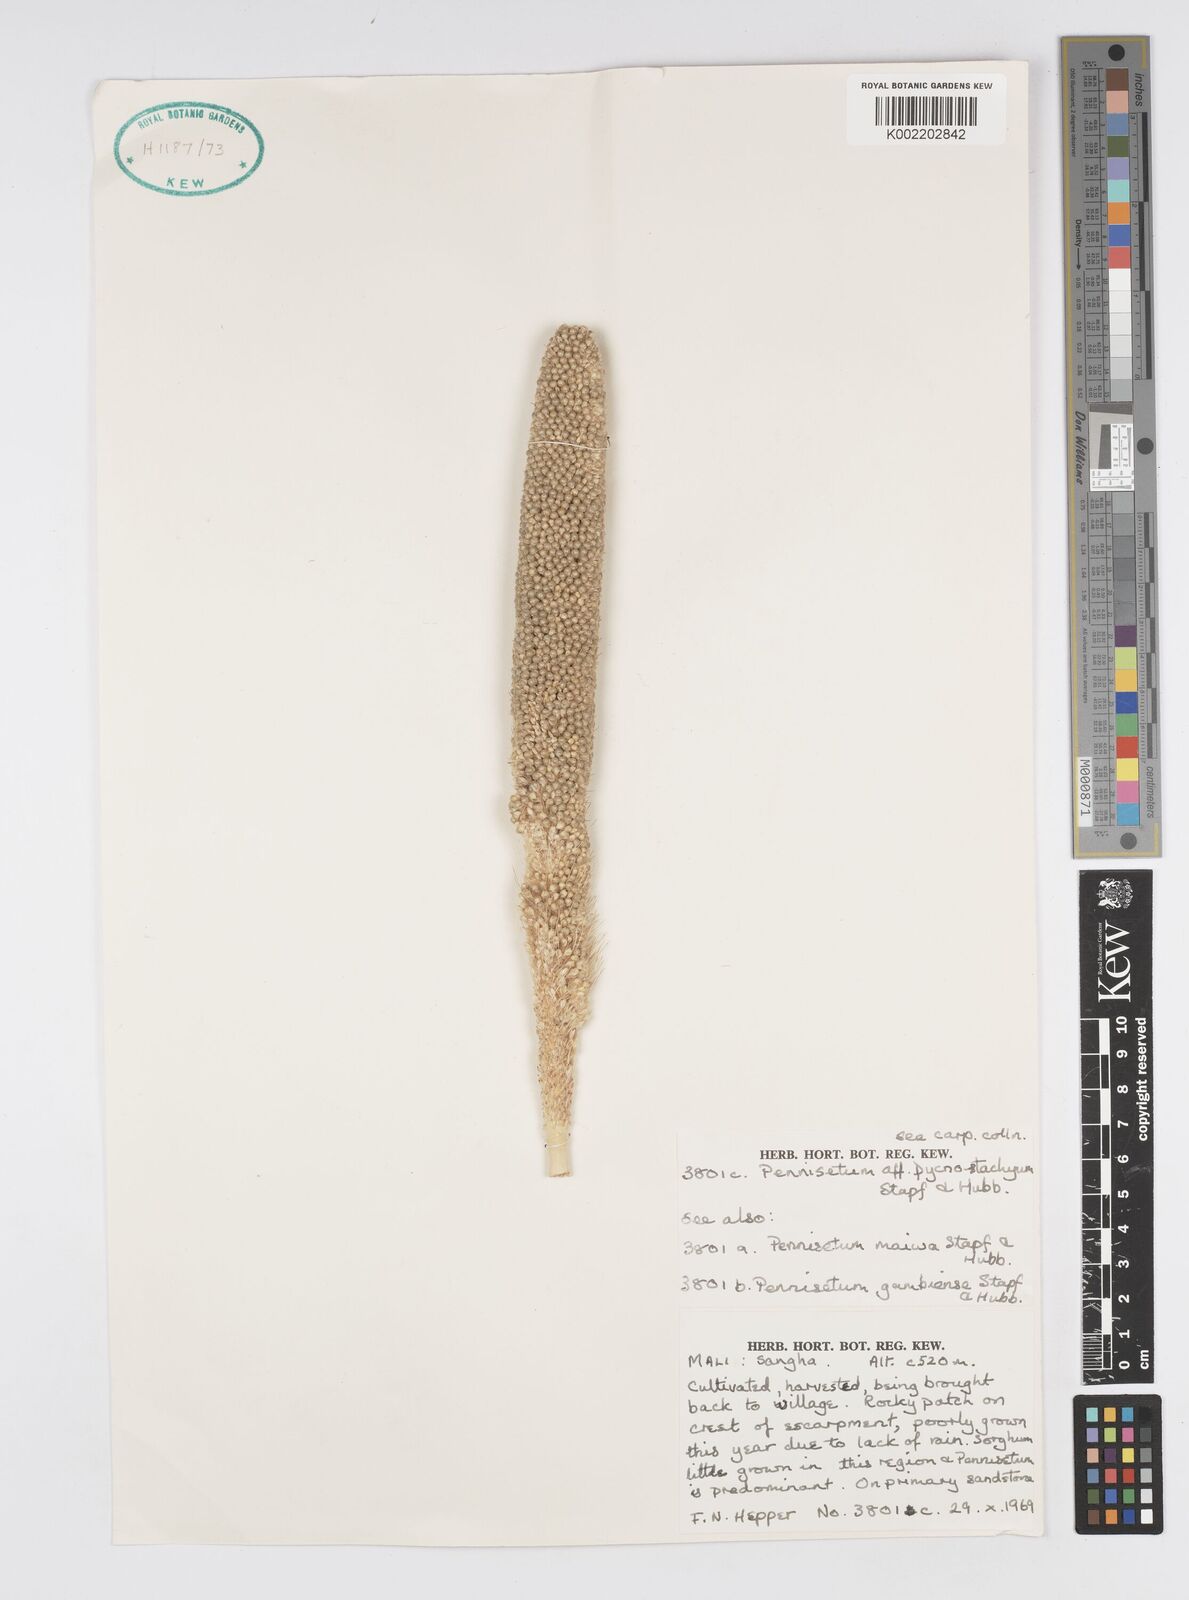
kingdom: Plantae
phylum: Tracheophyta
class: Liliopsida
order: Poales
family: Poaceae
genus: Cenchrus
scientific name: Cenchrus Pennisetum spec
